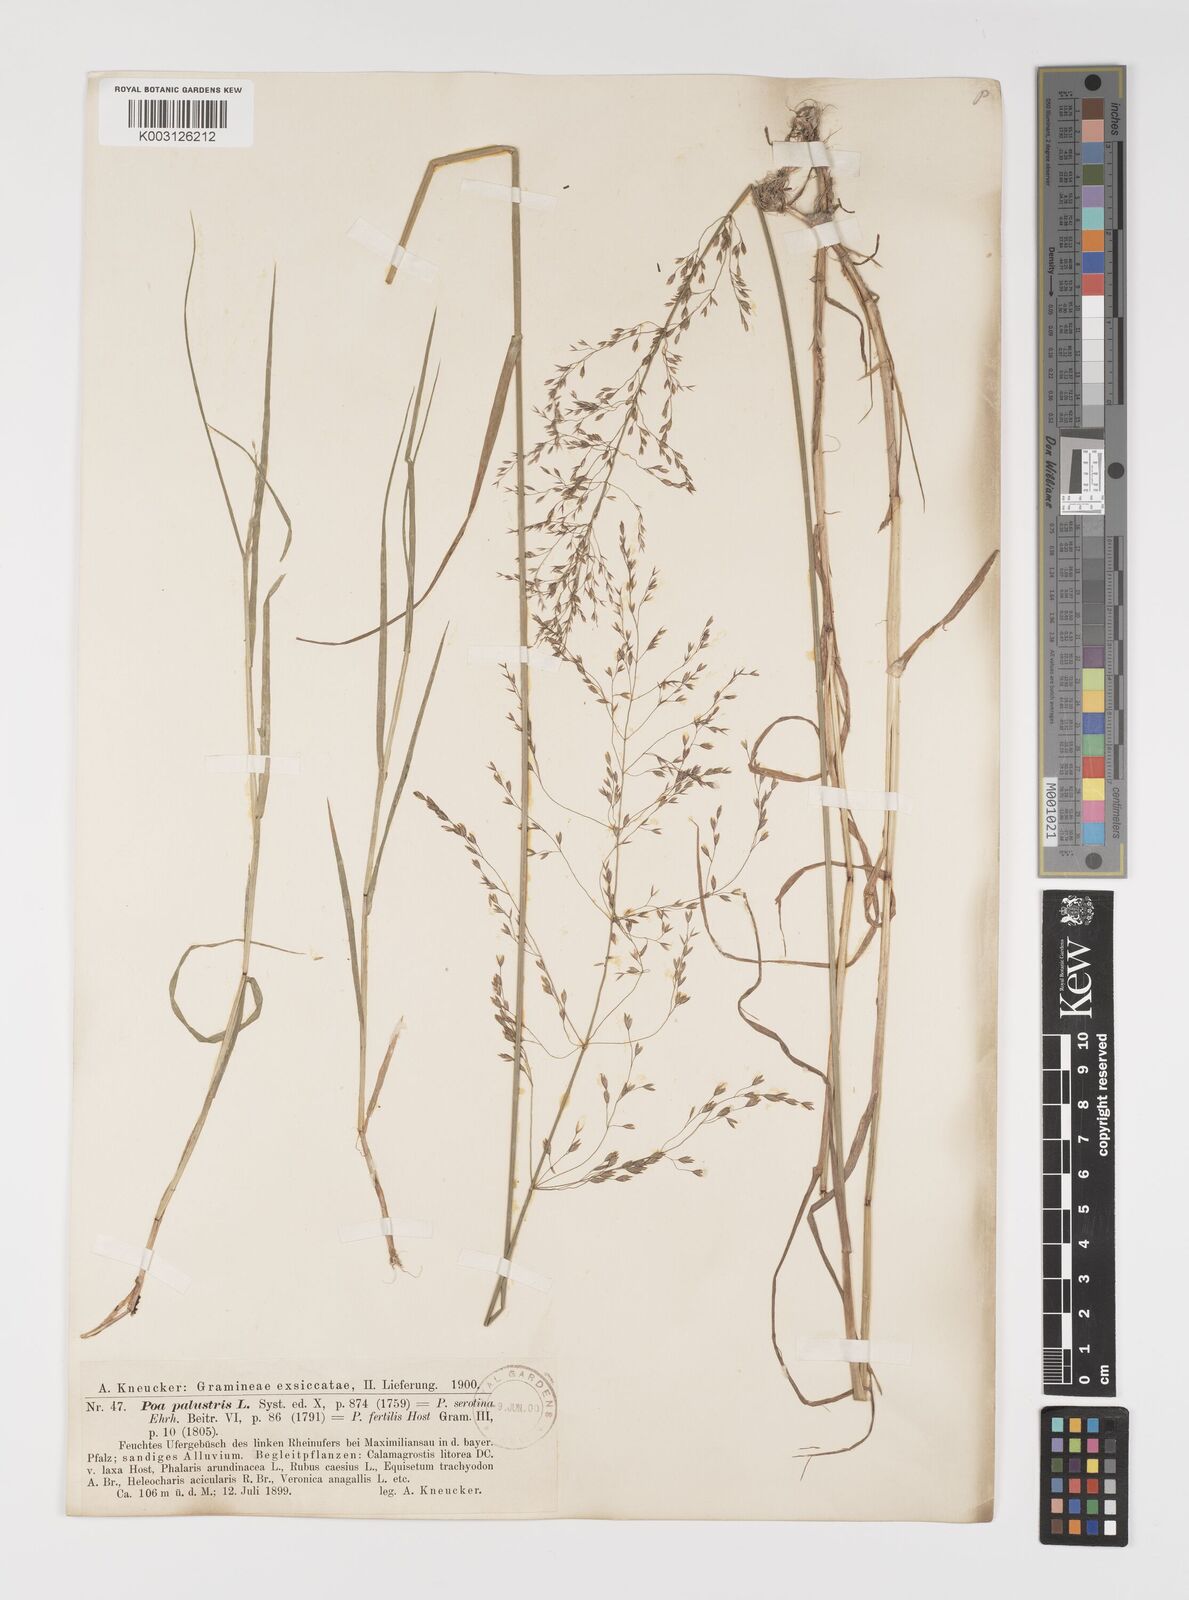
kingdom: Plantae
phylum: Tracheophyta
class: Liliopsida
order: Poales
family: Poaceae
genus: Poa
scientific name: Poa palustris
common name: Swamp meadow-grass
